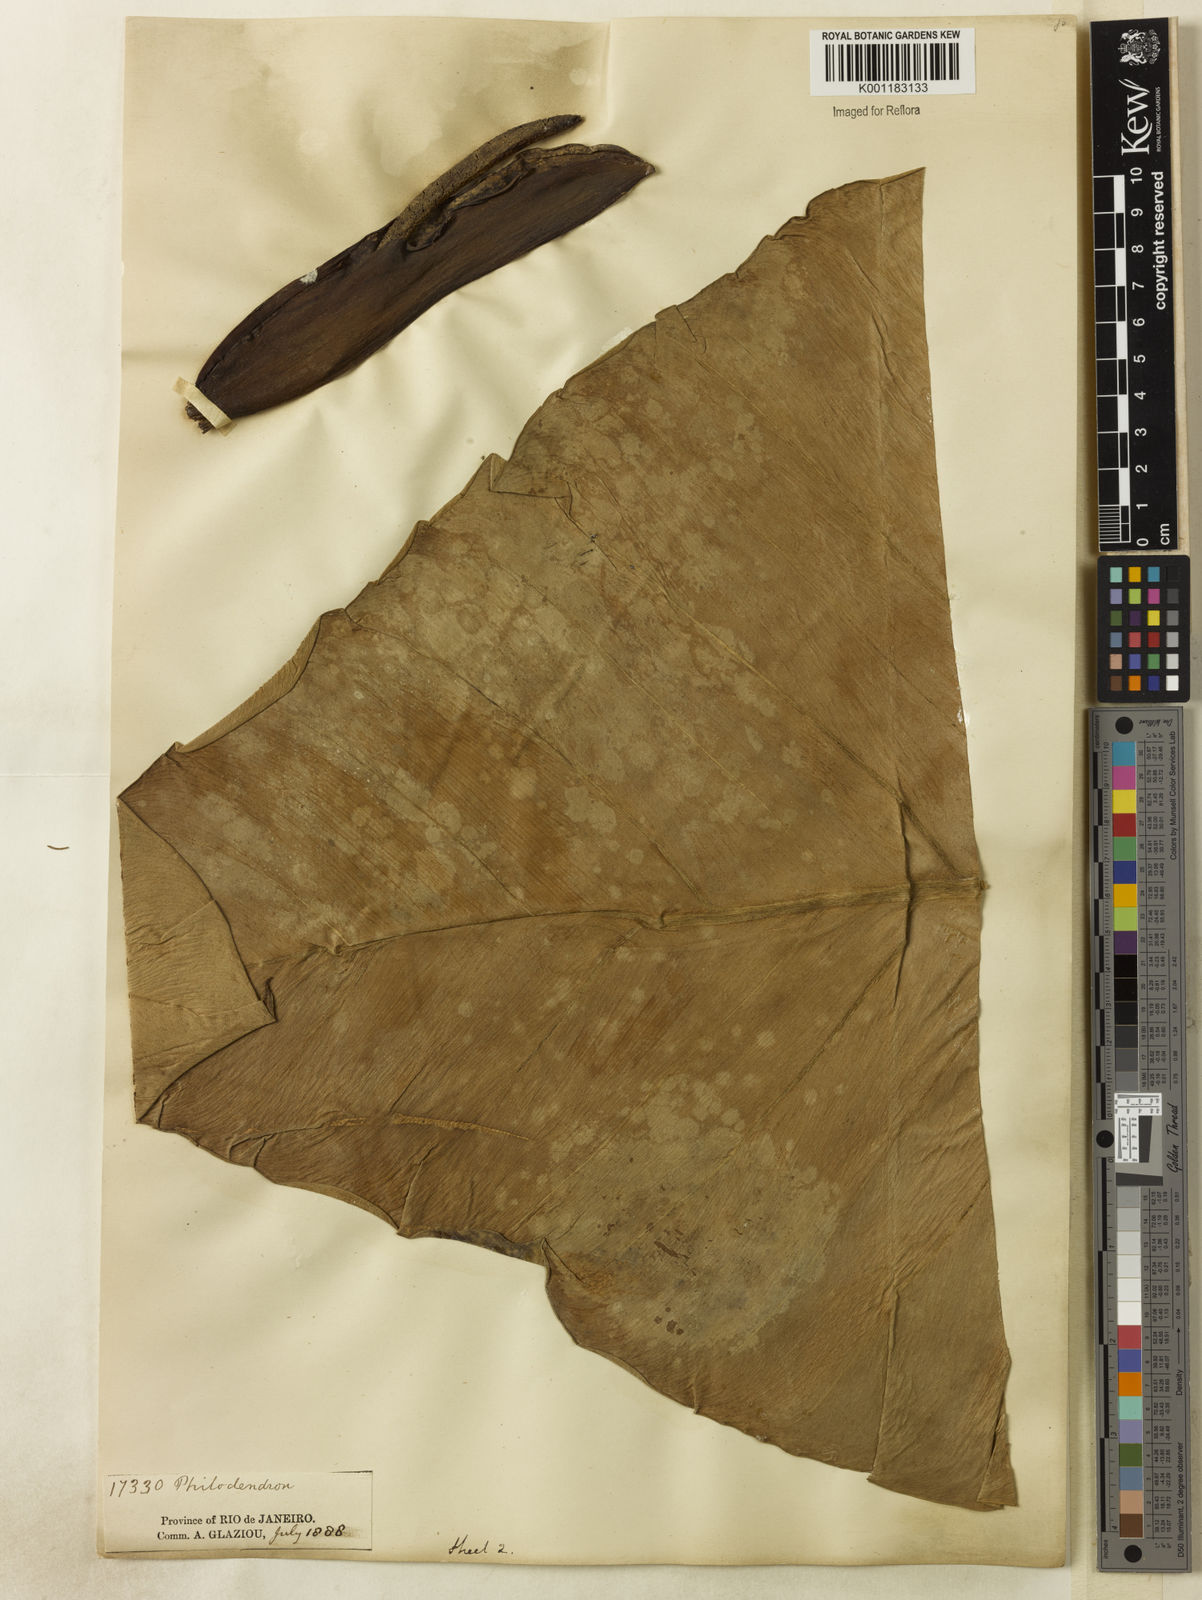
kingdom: Plantae
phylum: Tracheophyta
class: Liliopsida
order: Alismatales
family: Araceae
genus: Philodendron
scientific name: Philodendron cordatum
